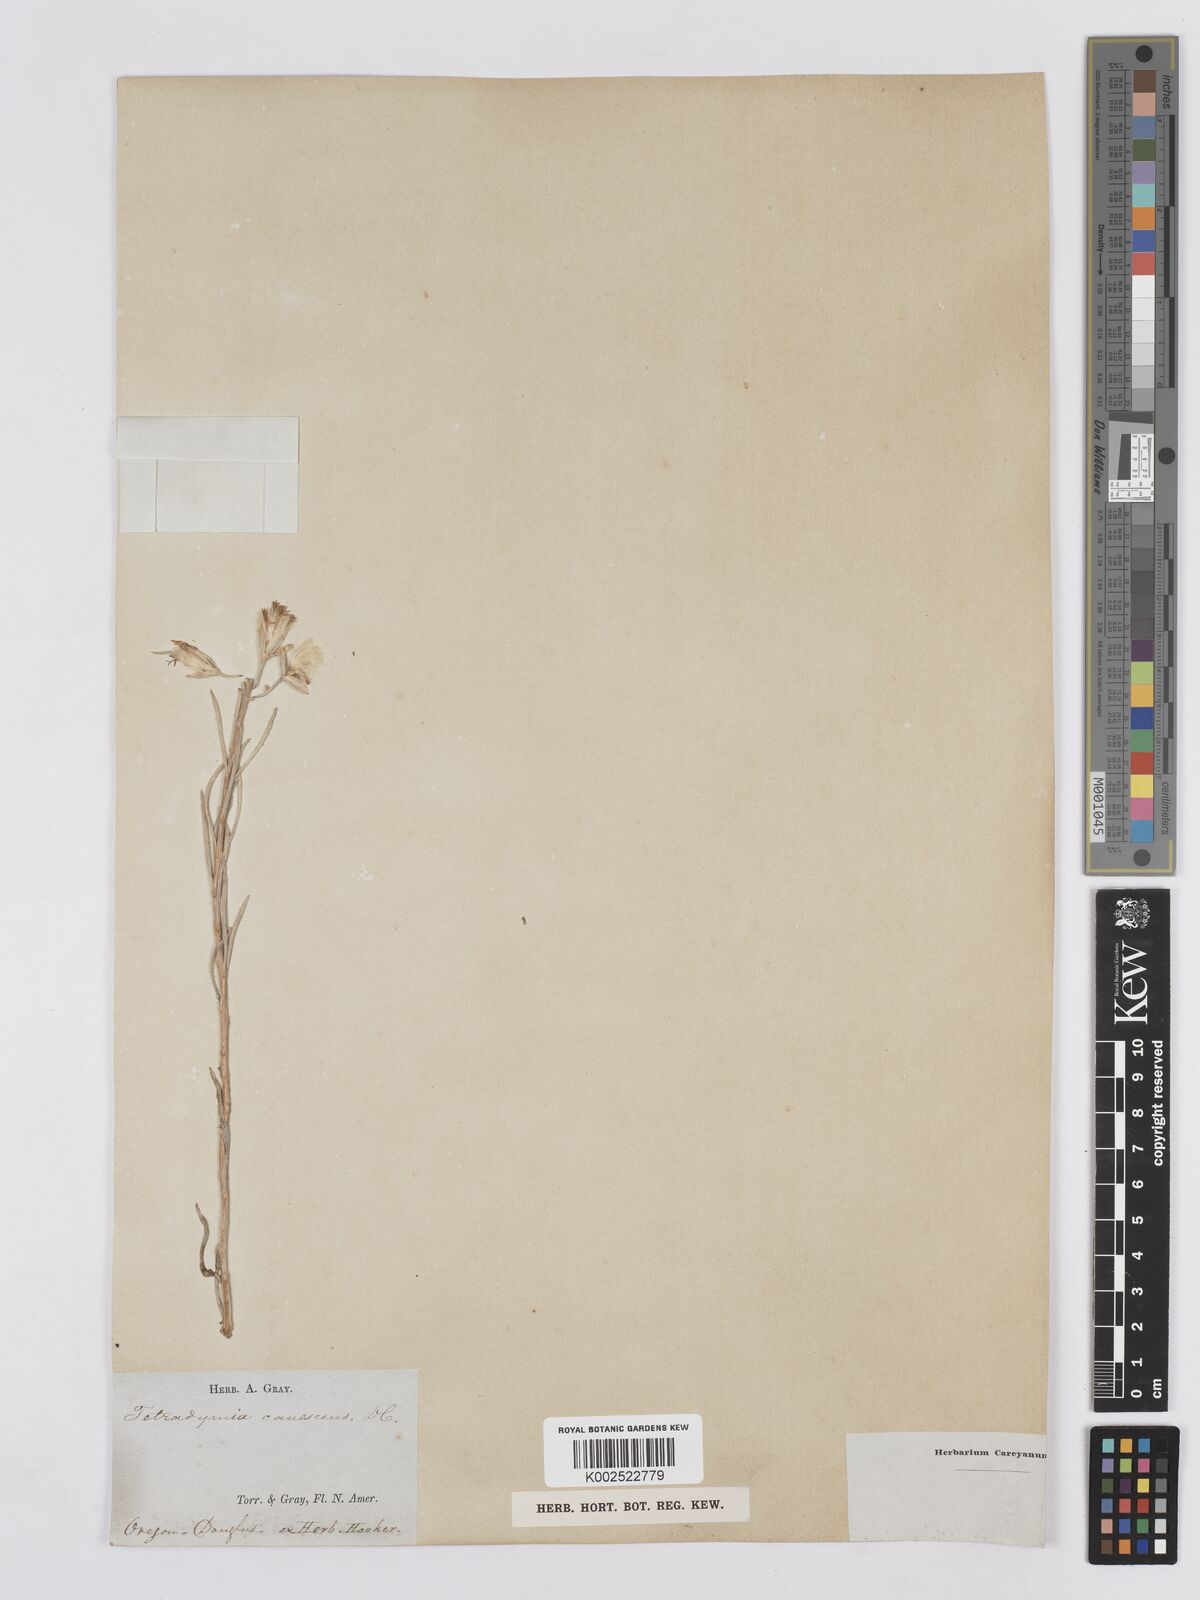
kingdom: Plantae
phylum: Tracheophyta
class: Magnoliopsida
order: Asterales
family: Asteraceae
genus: Tetradymia
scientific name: Tetradymia canescens
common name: Spineless horsebrush
